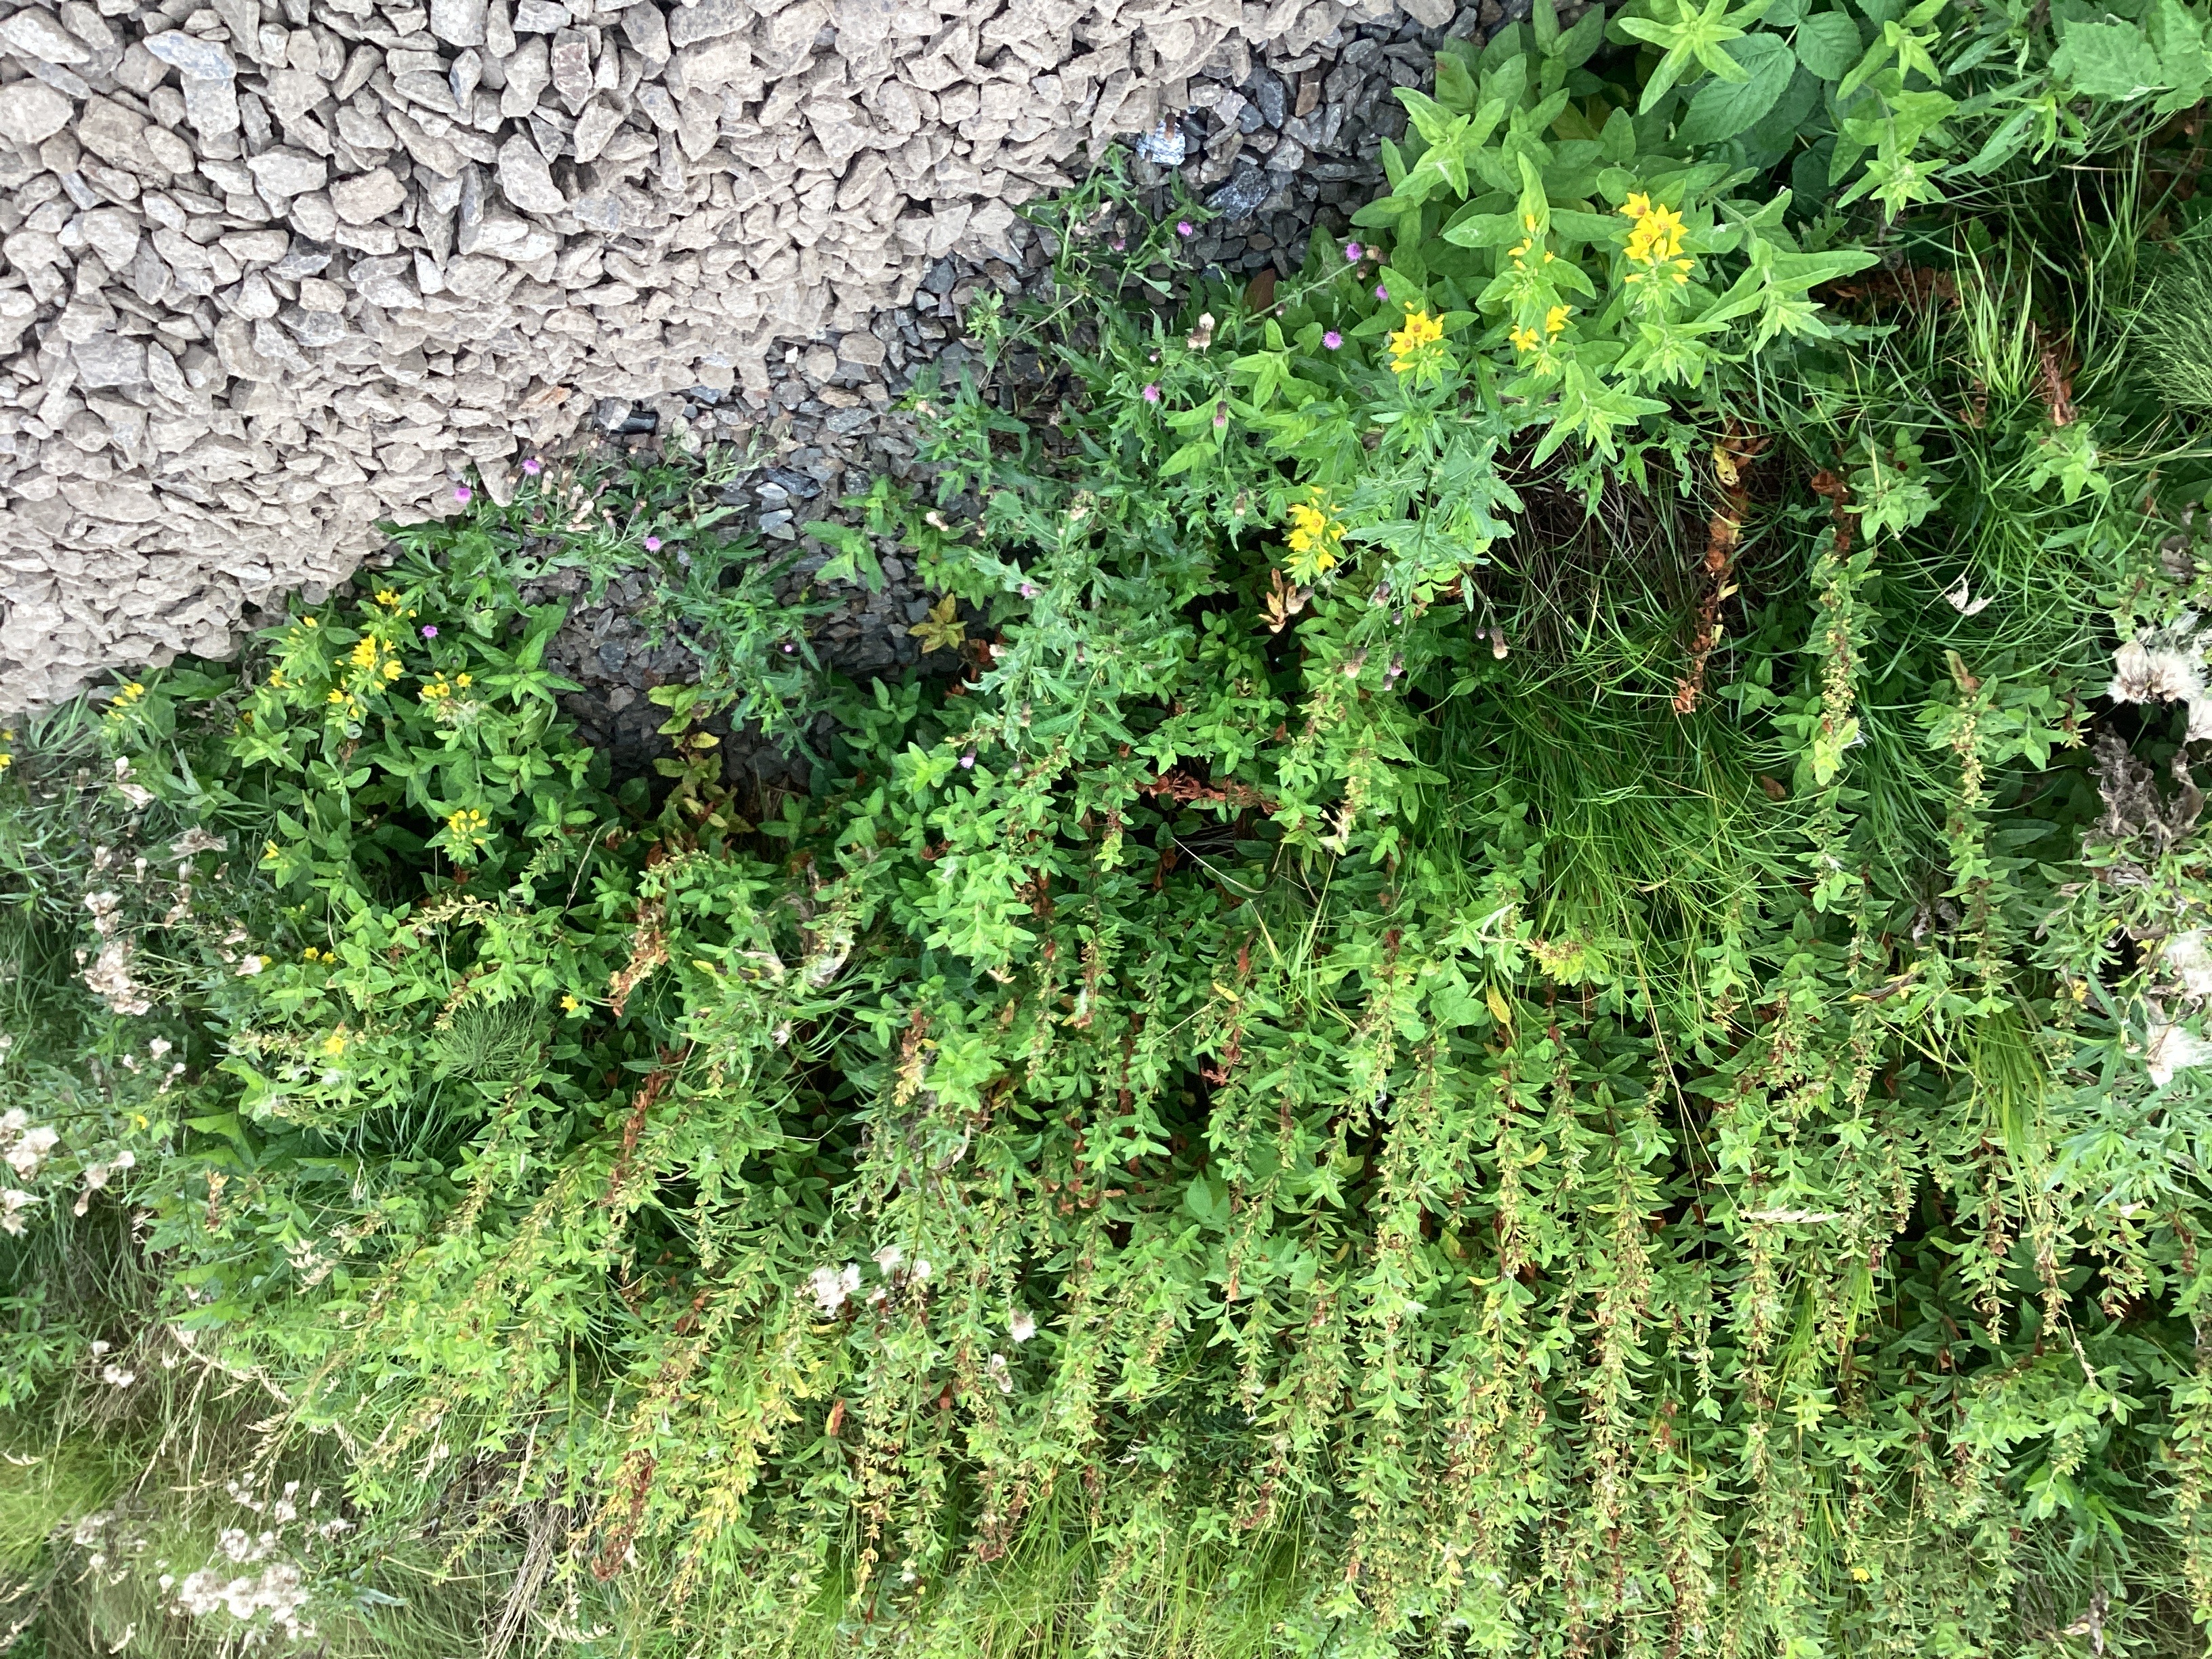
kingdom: Plantae
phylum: Tracheophyta
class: Magnoliopsida
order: Ericales
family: Primulaceae
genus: Lysimachia
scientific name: Lysimachia punctata
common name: fagerfredløs
